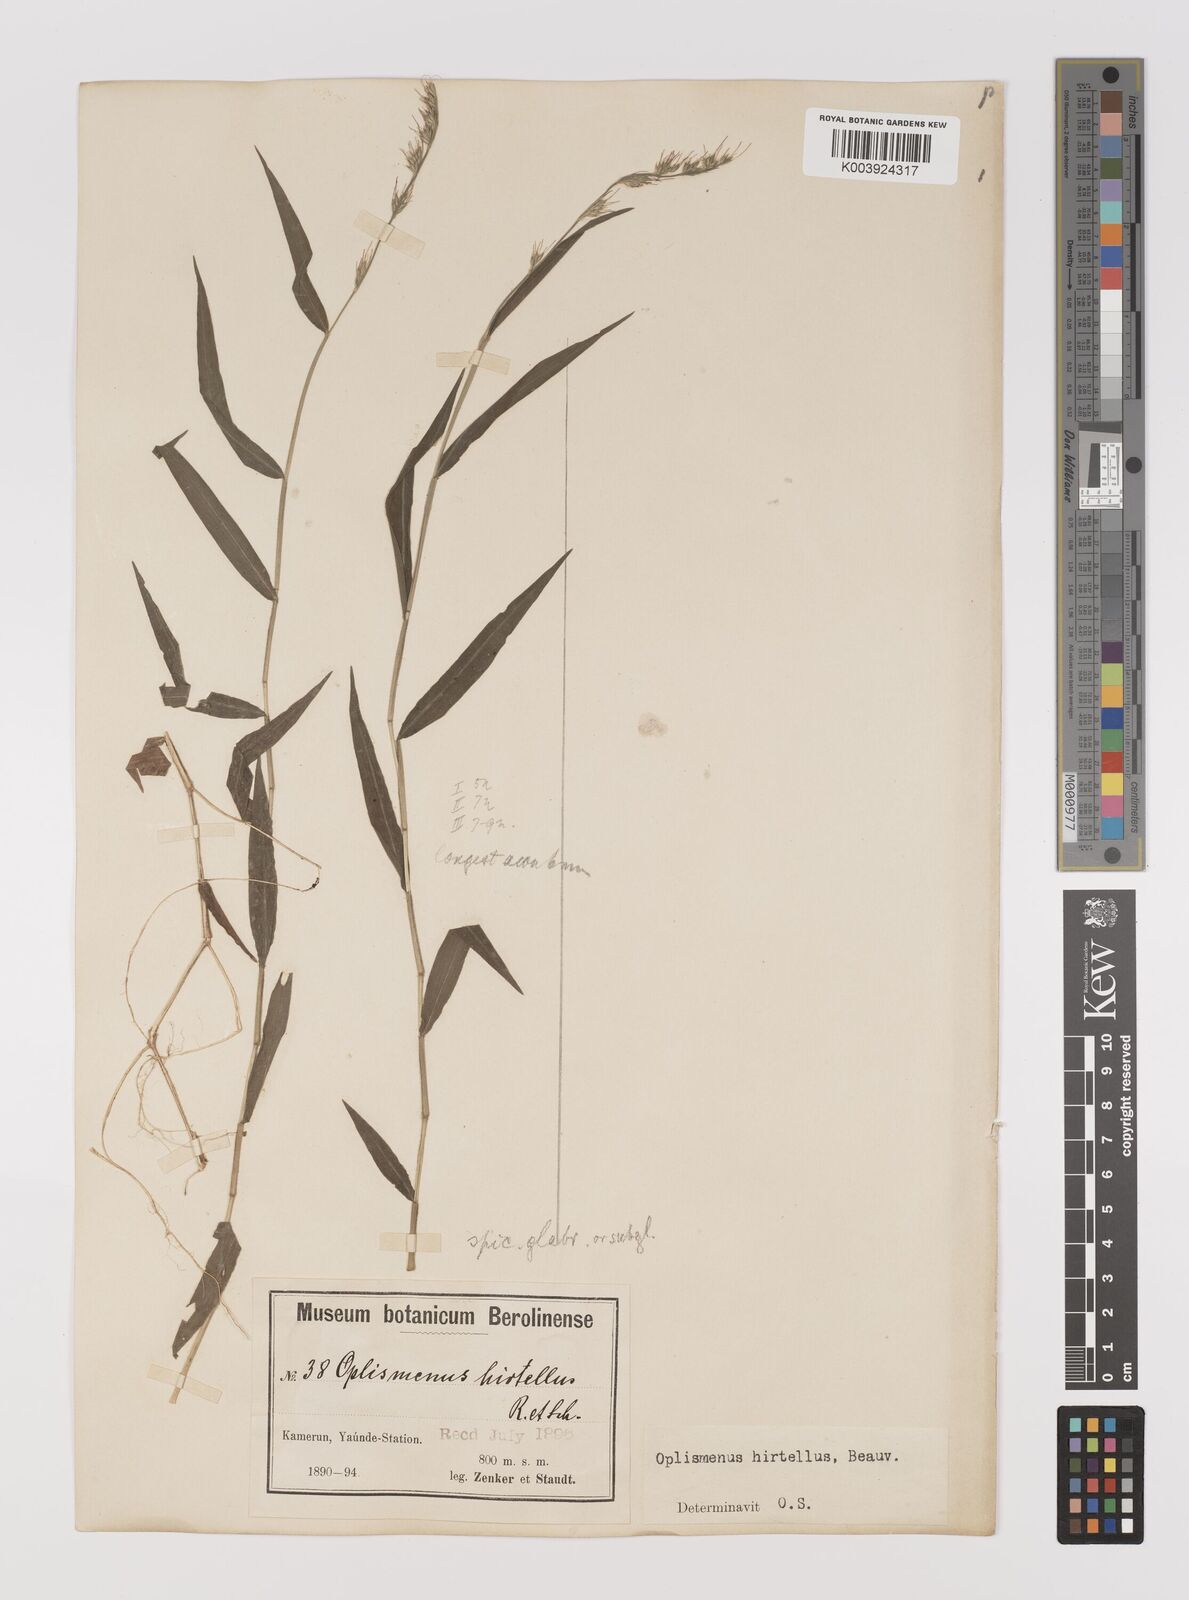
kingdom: Plantae
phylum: Tracheophyta
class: Liliopsida
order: Poales
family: Poaceae
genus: Oplismenus
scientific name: Oplismenus hirtellus
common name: Basketgrass
